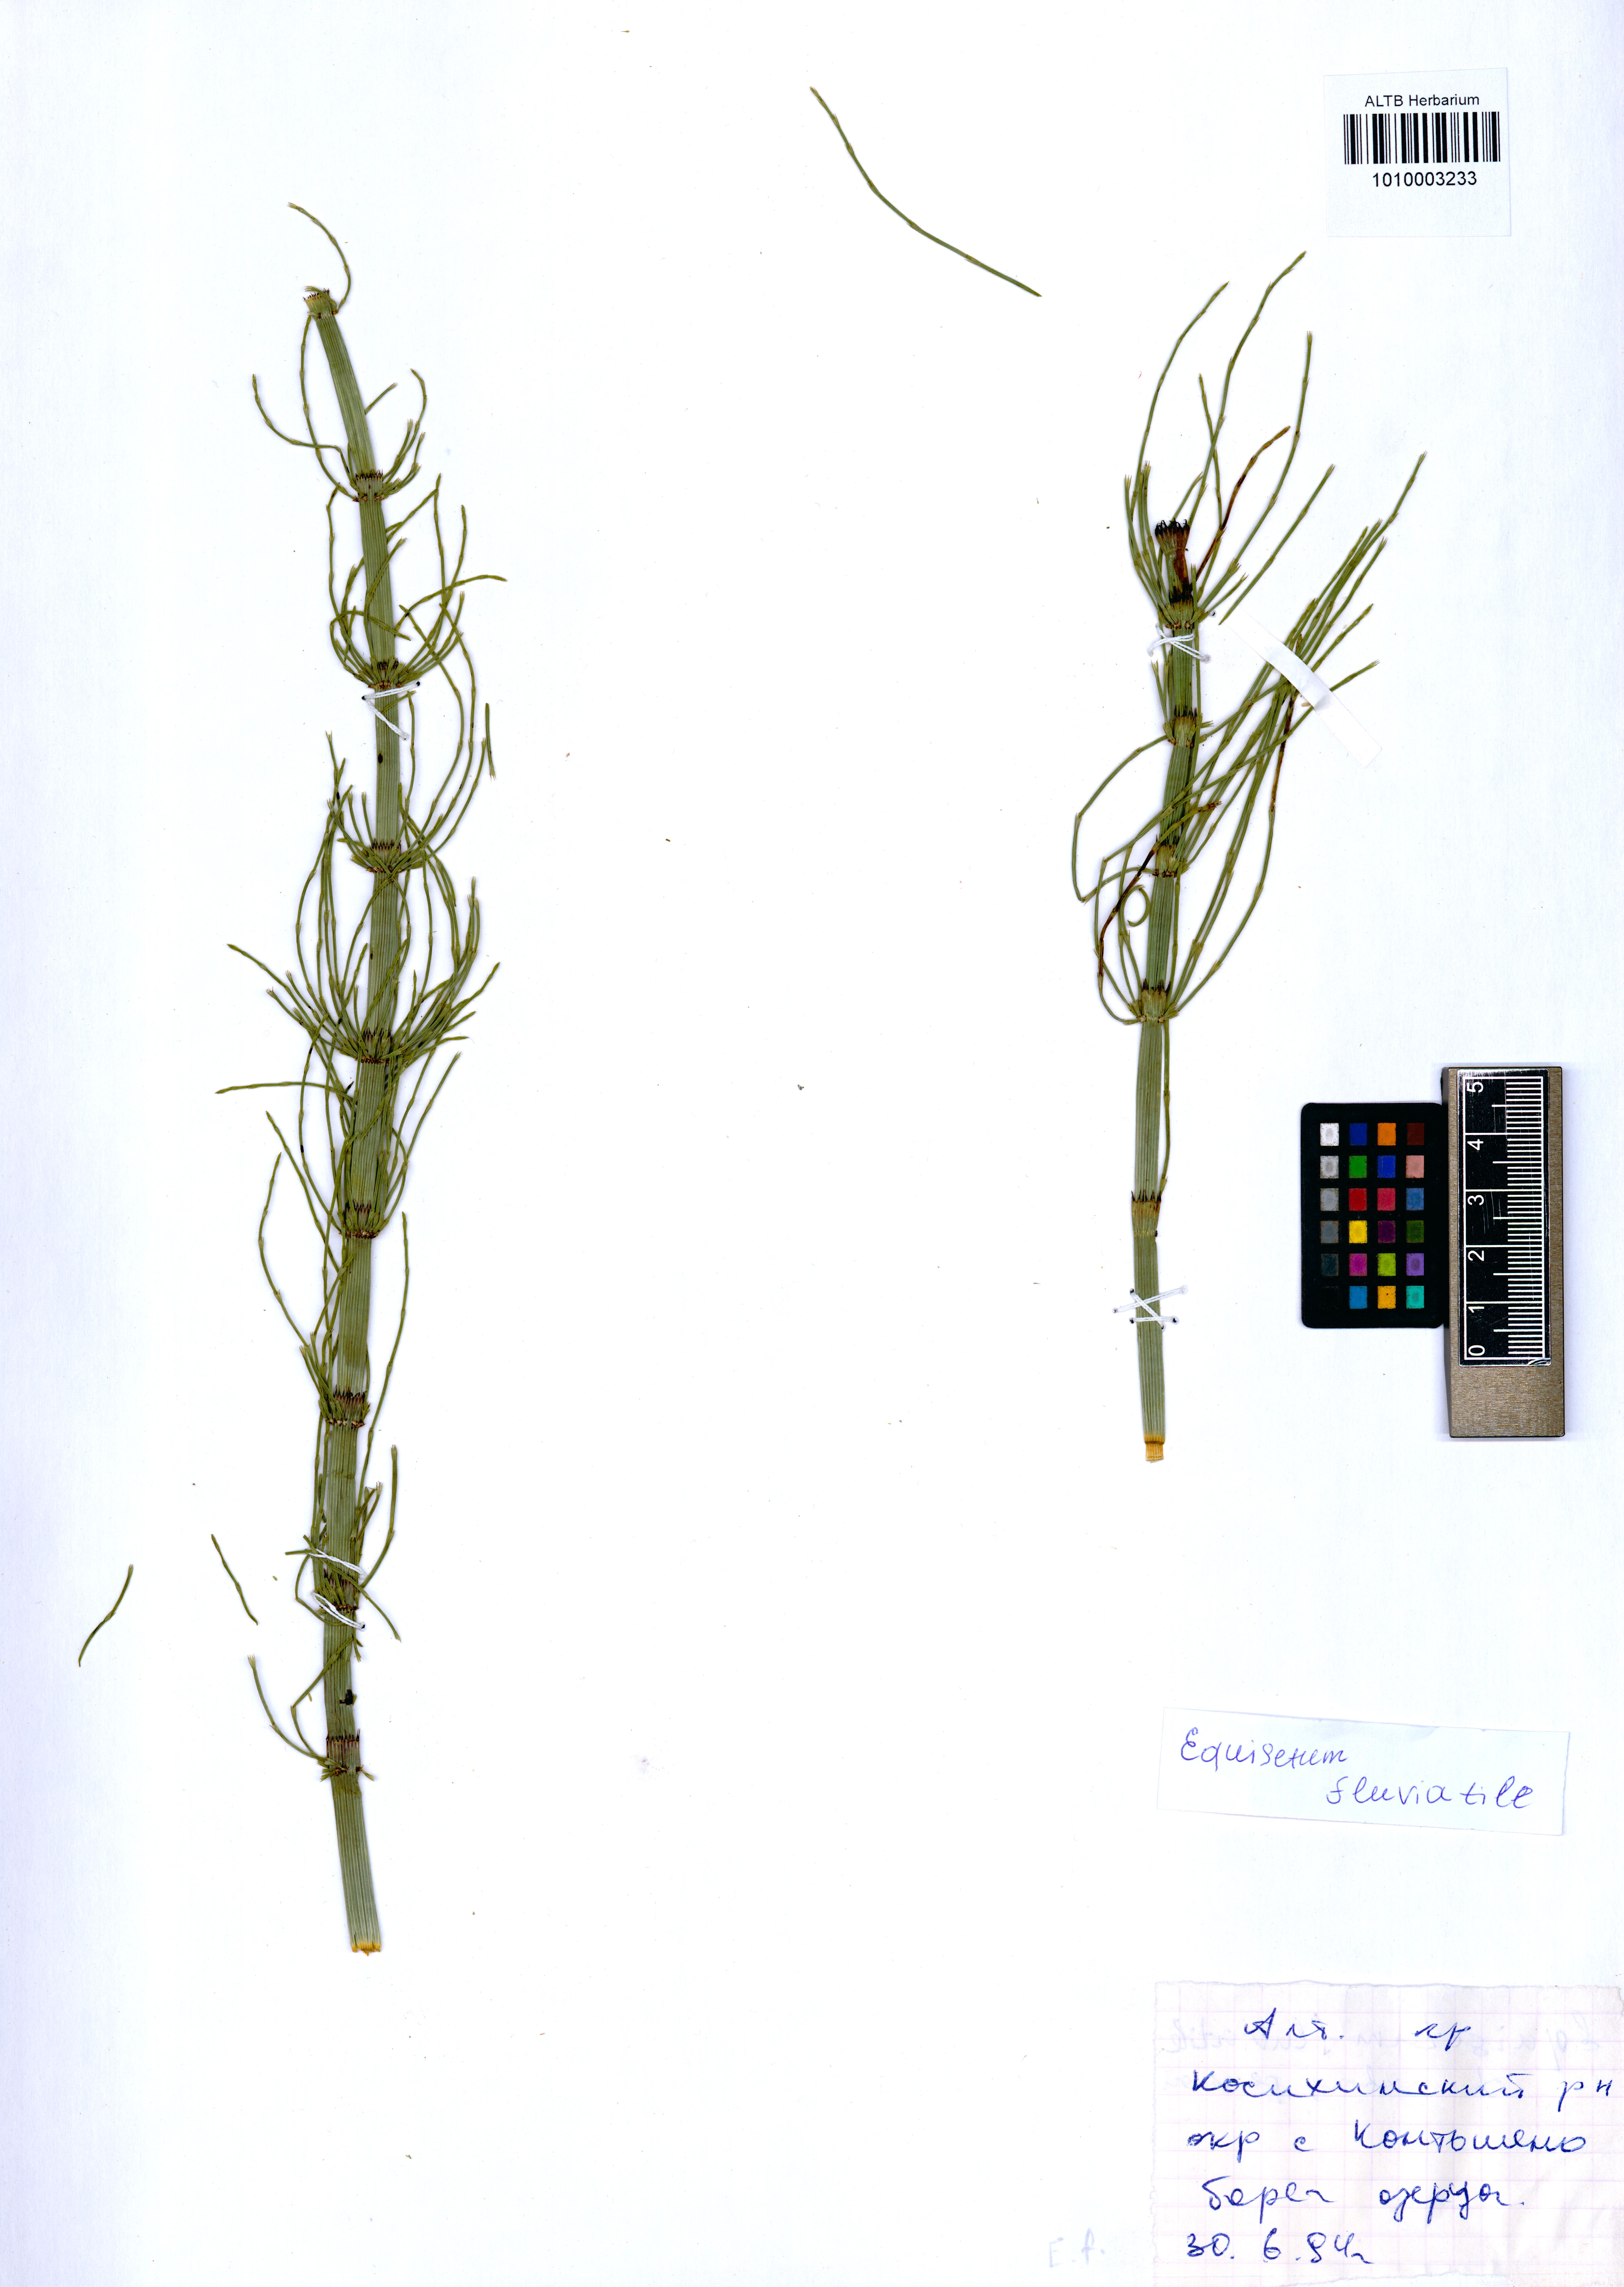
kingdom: Plantae
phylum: Tracheophyta
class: Polypodiopsida
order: Equisetales
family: Equisetaceae
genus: Equisetum
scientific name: Equisetum fluviatile
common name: Water horsetail
